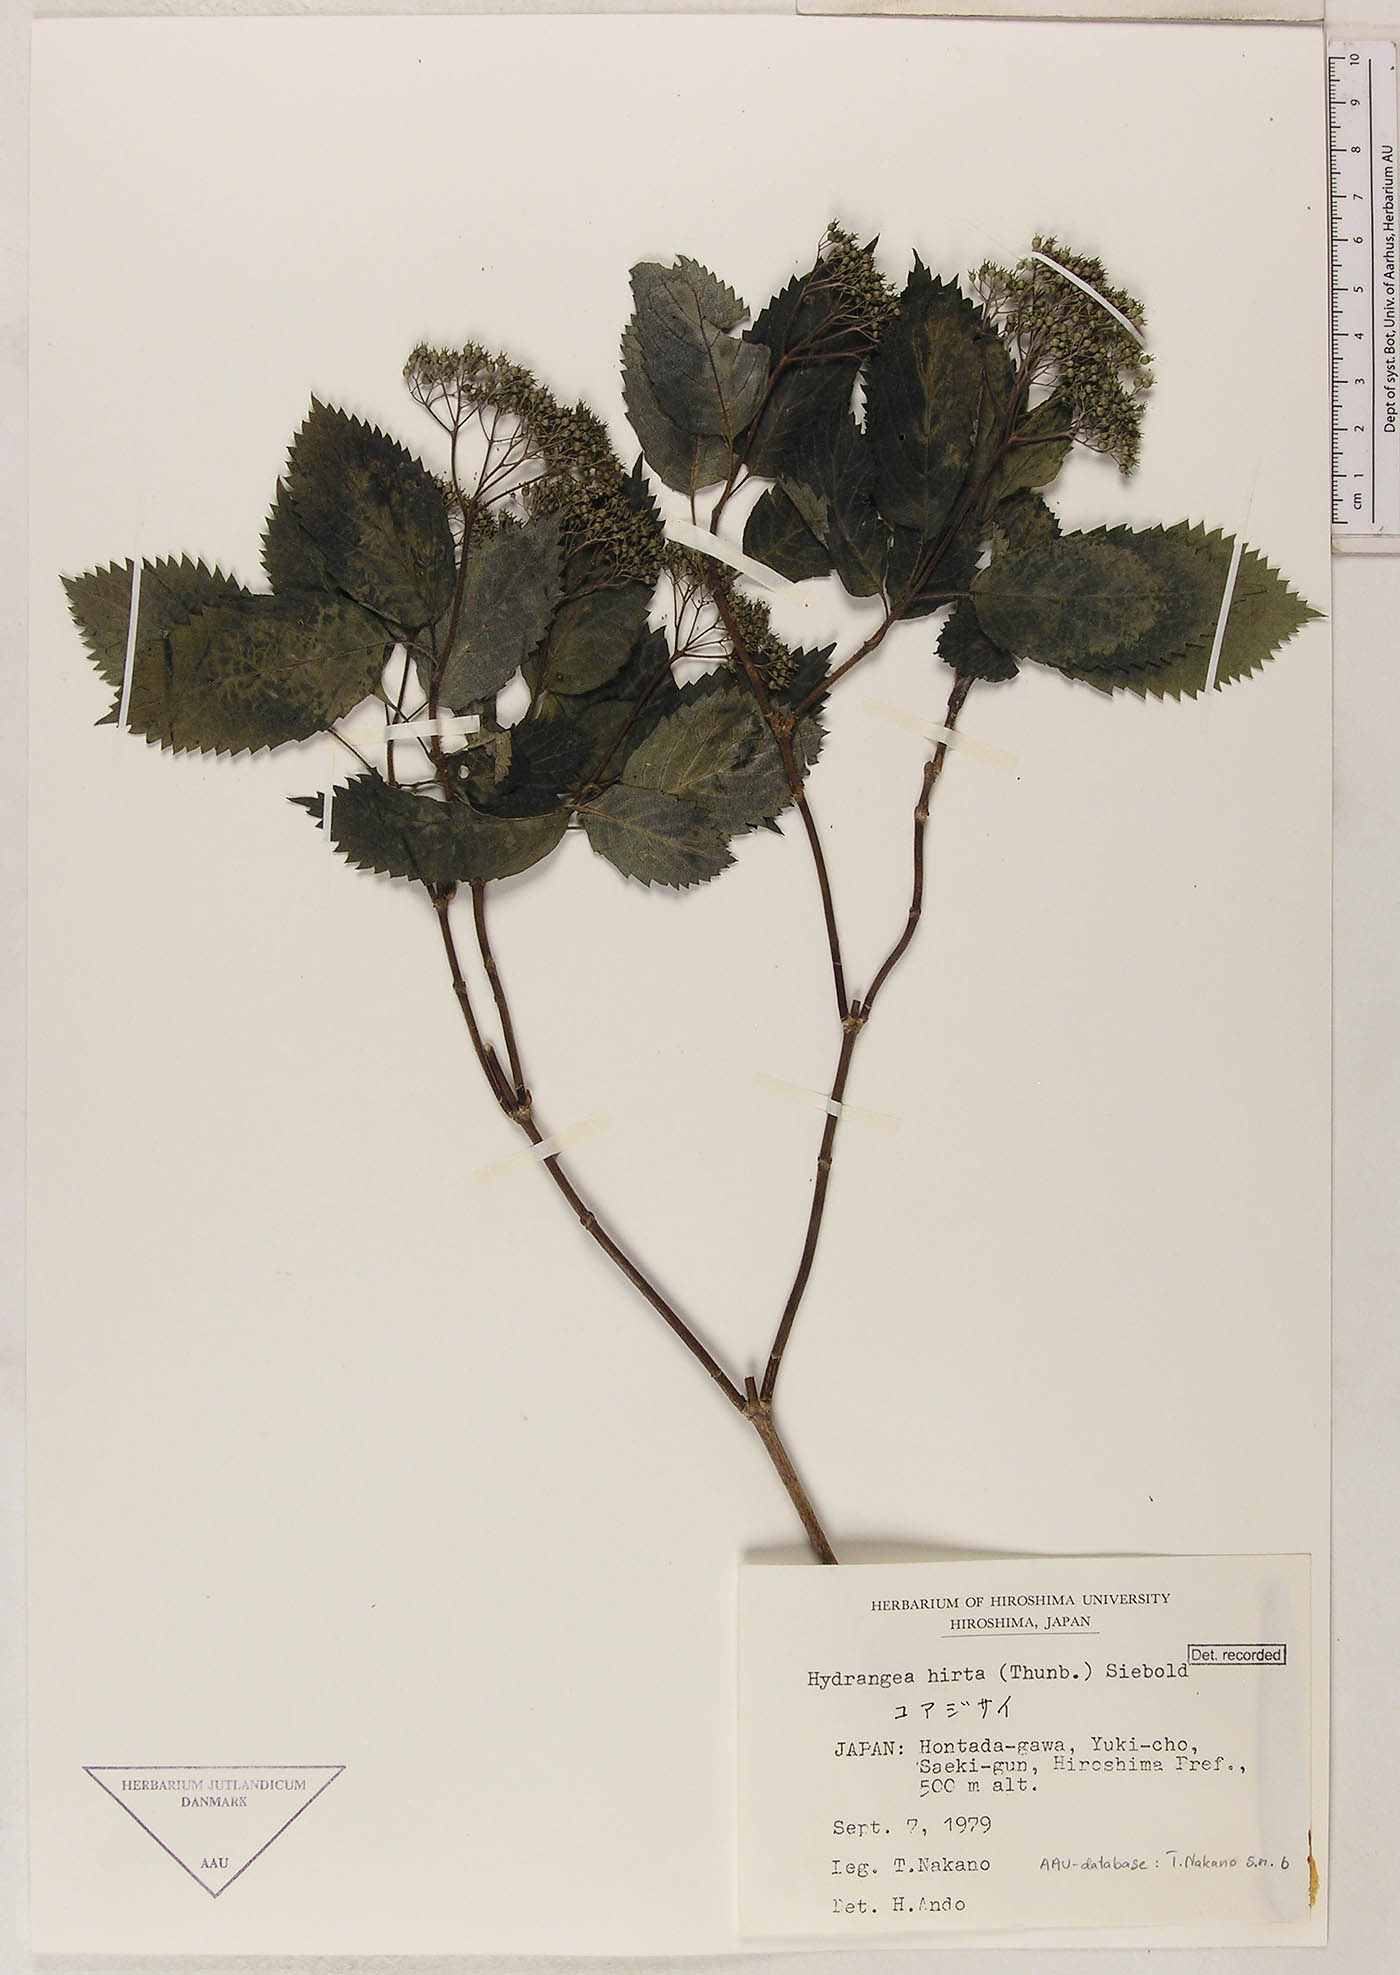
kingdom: Plantae
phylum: Tracheophyta
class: Magnoliopsida
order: Cornales
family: Hydrangeaceae
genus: Hydrangea
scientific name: Hydrangea hirta
